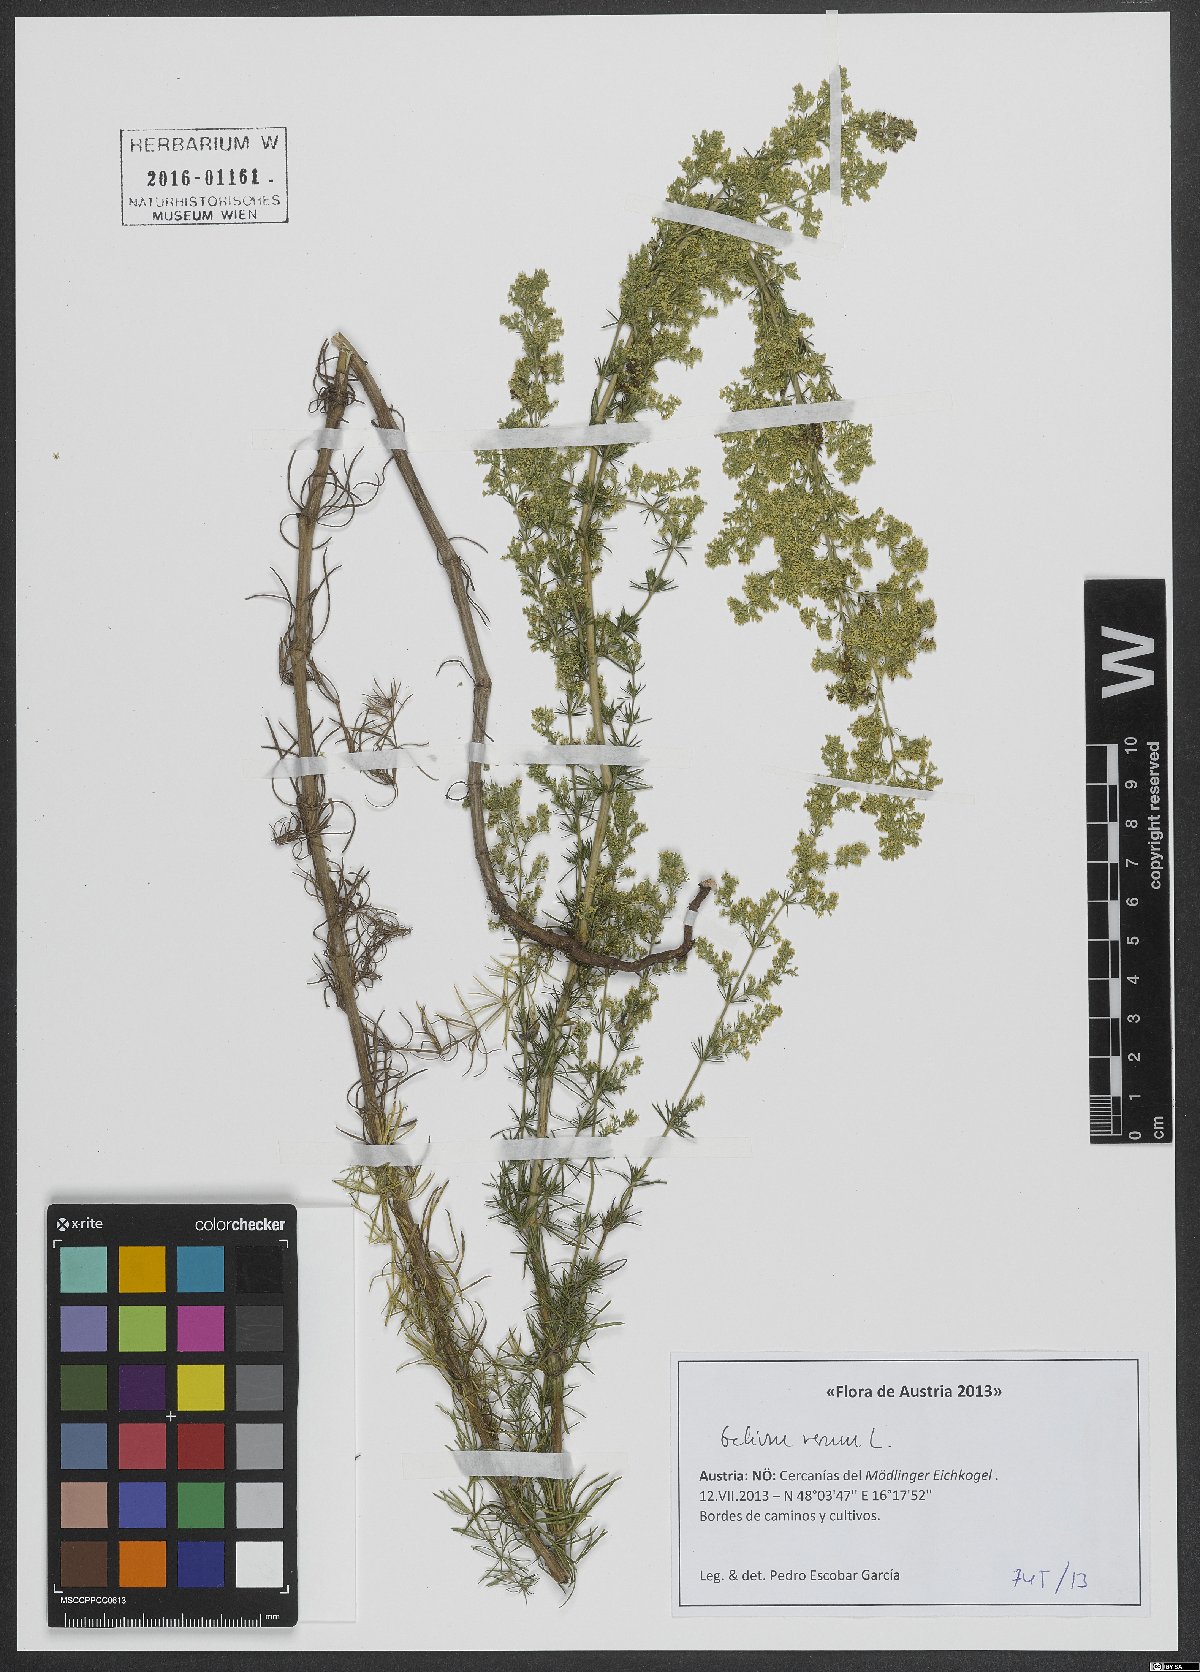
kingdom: Plantae
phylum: Tracheophyta
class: Magnoliopsida
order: Gentianales
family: Rubiaceae
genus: Galium
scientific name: Galium verum
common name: Lady's bedstraw
